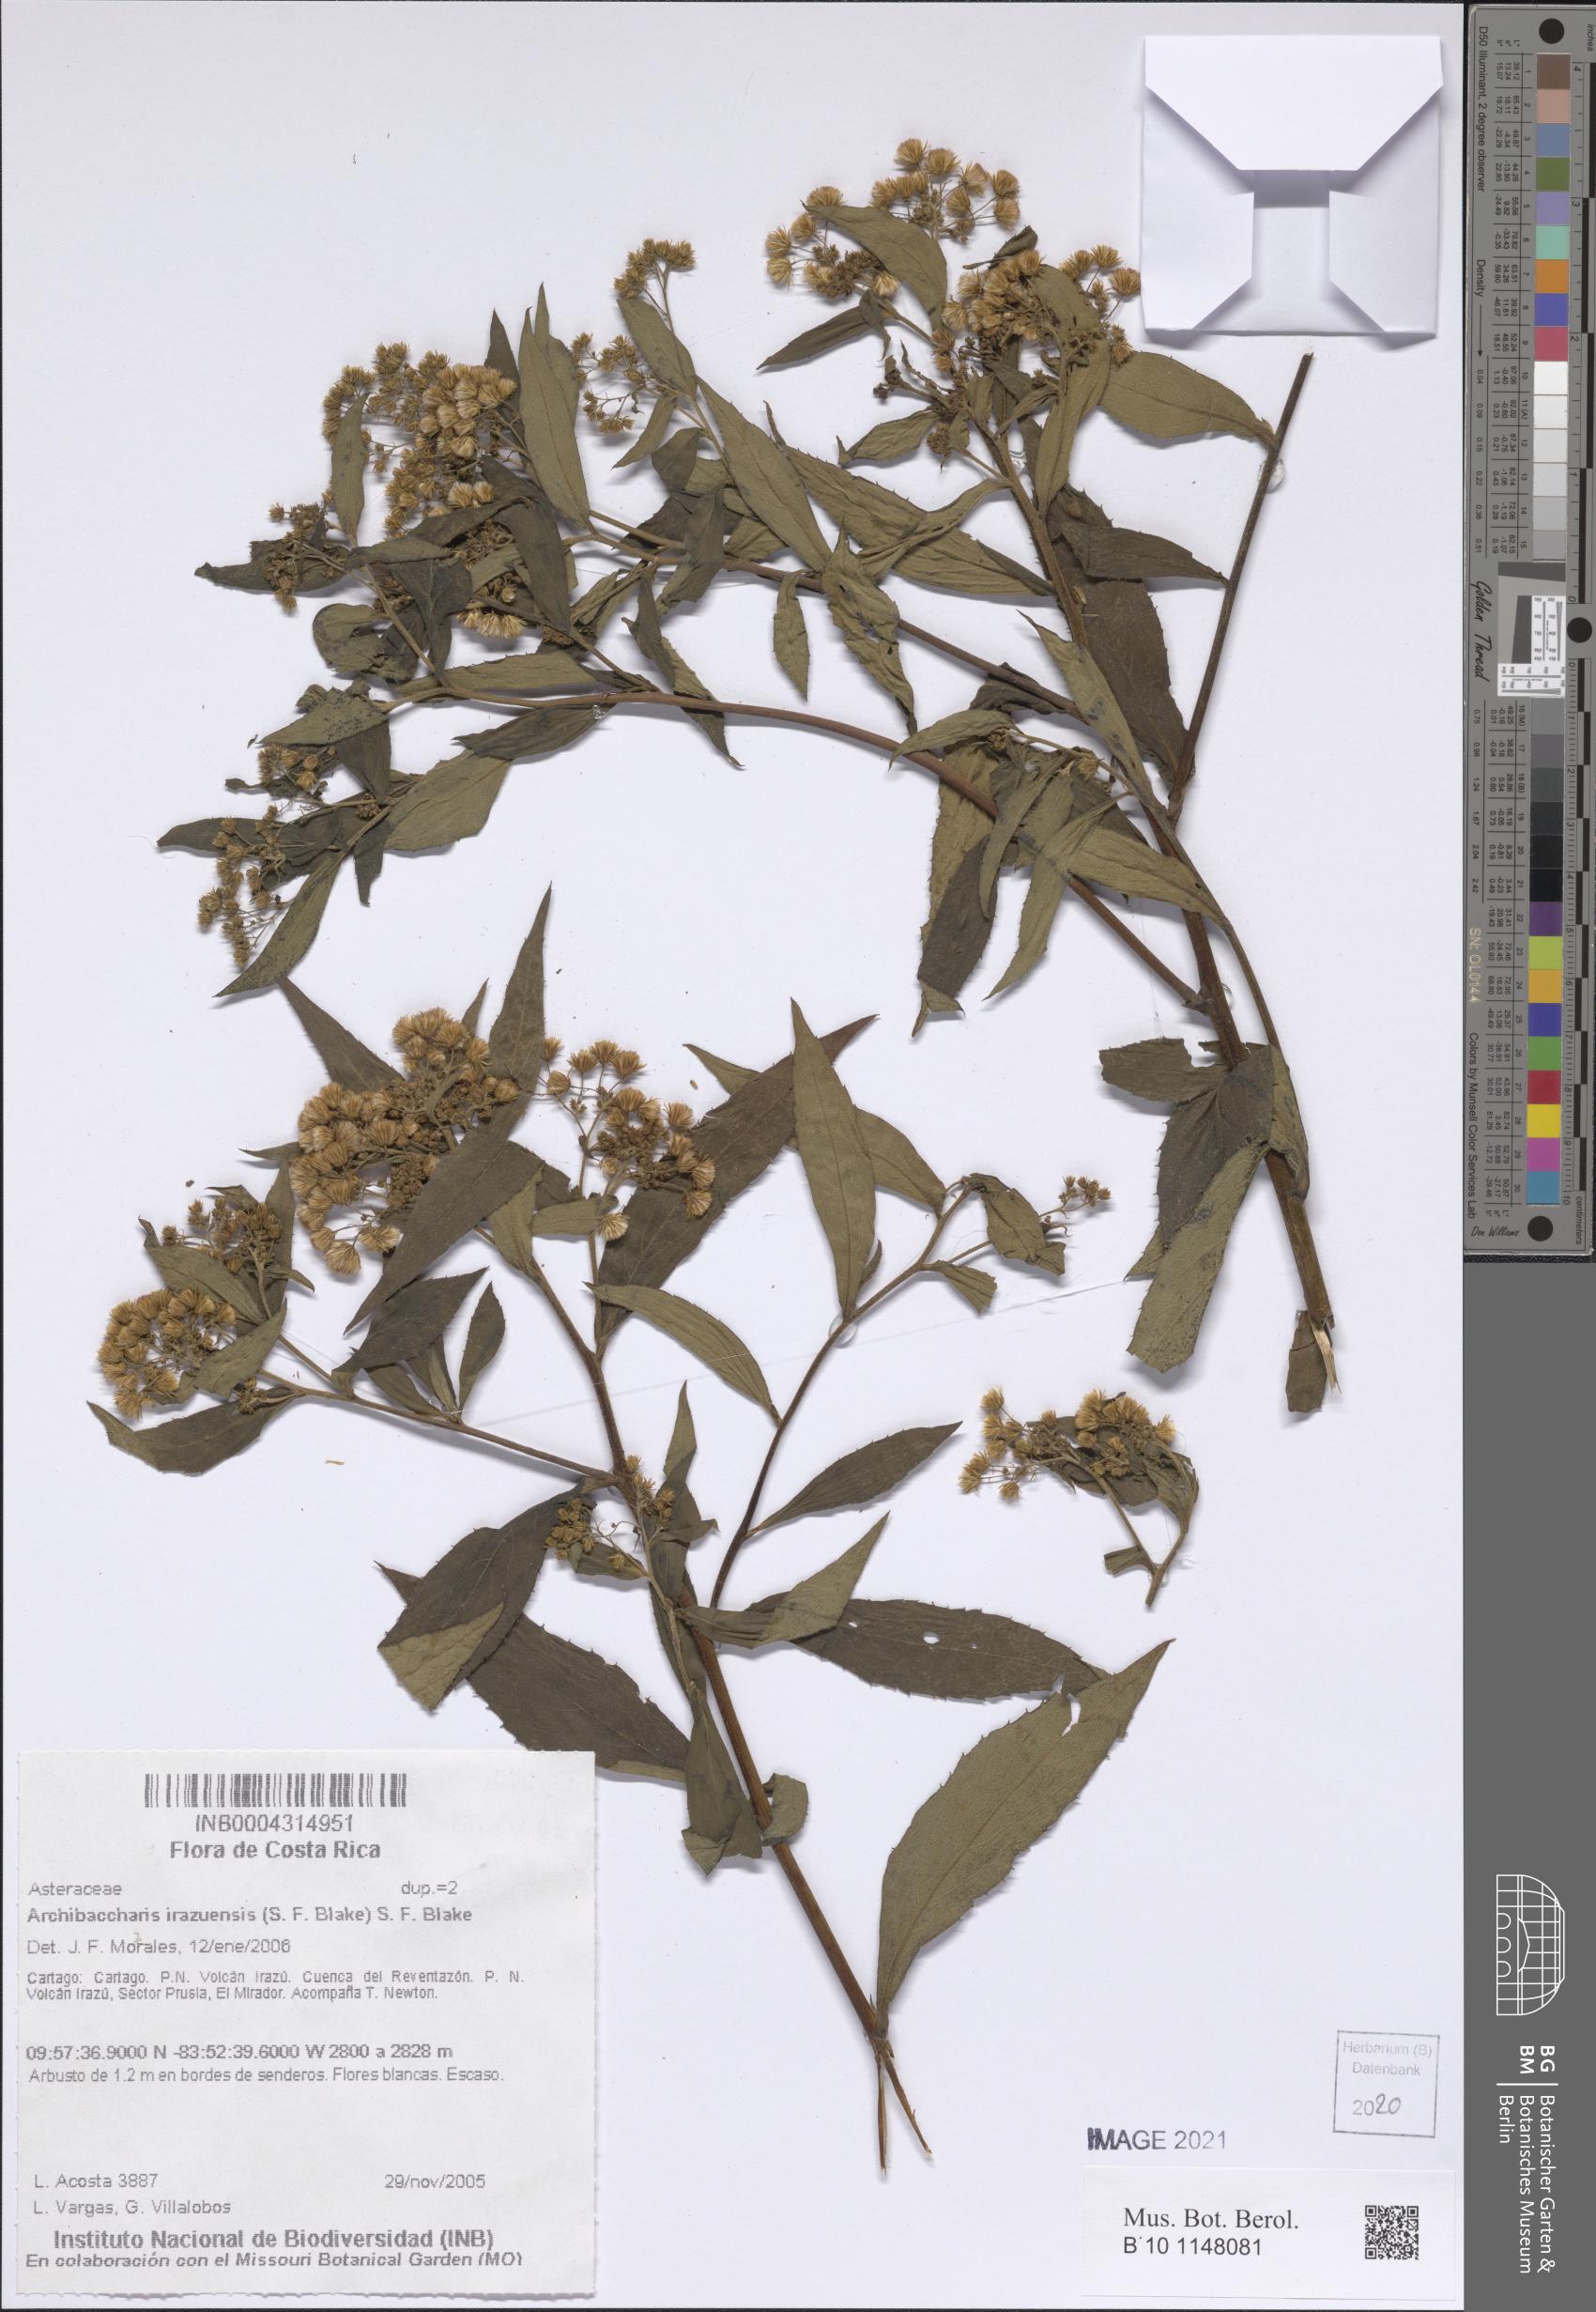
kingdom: Plantae
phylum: Tracheophyta
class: Magnoliopsida
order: Asterales
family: Asteraceae
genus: Archibaccharis
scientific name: Archibaccharis irazuensis
